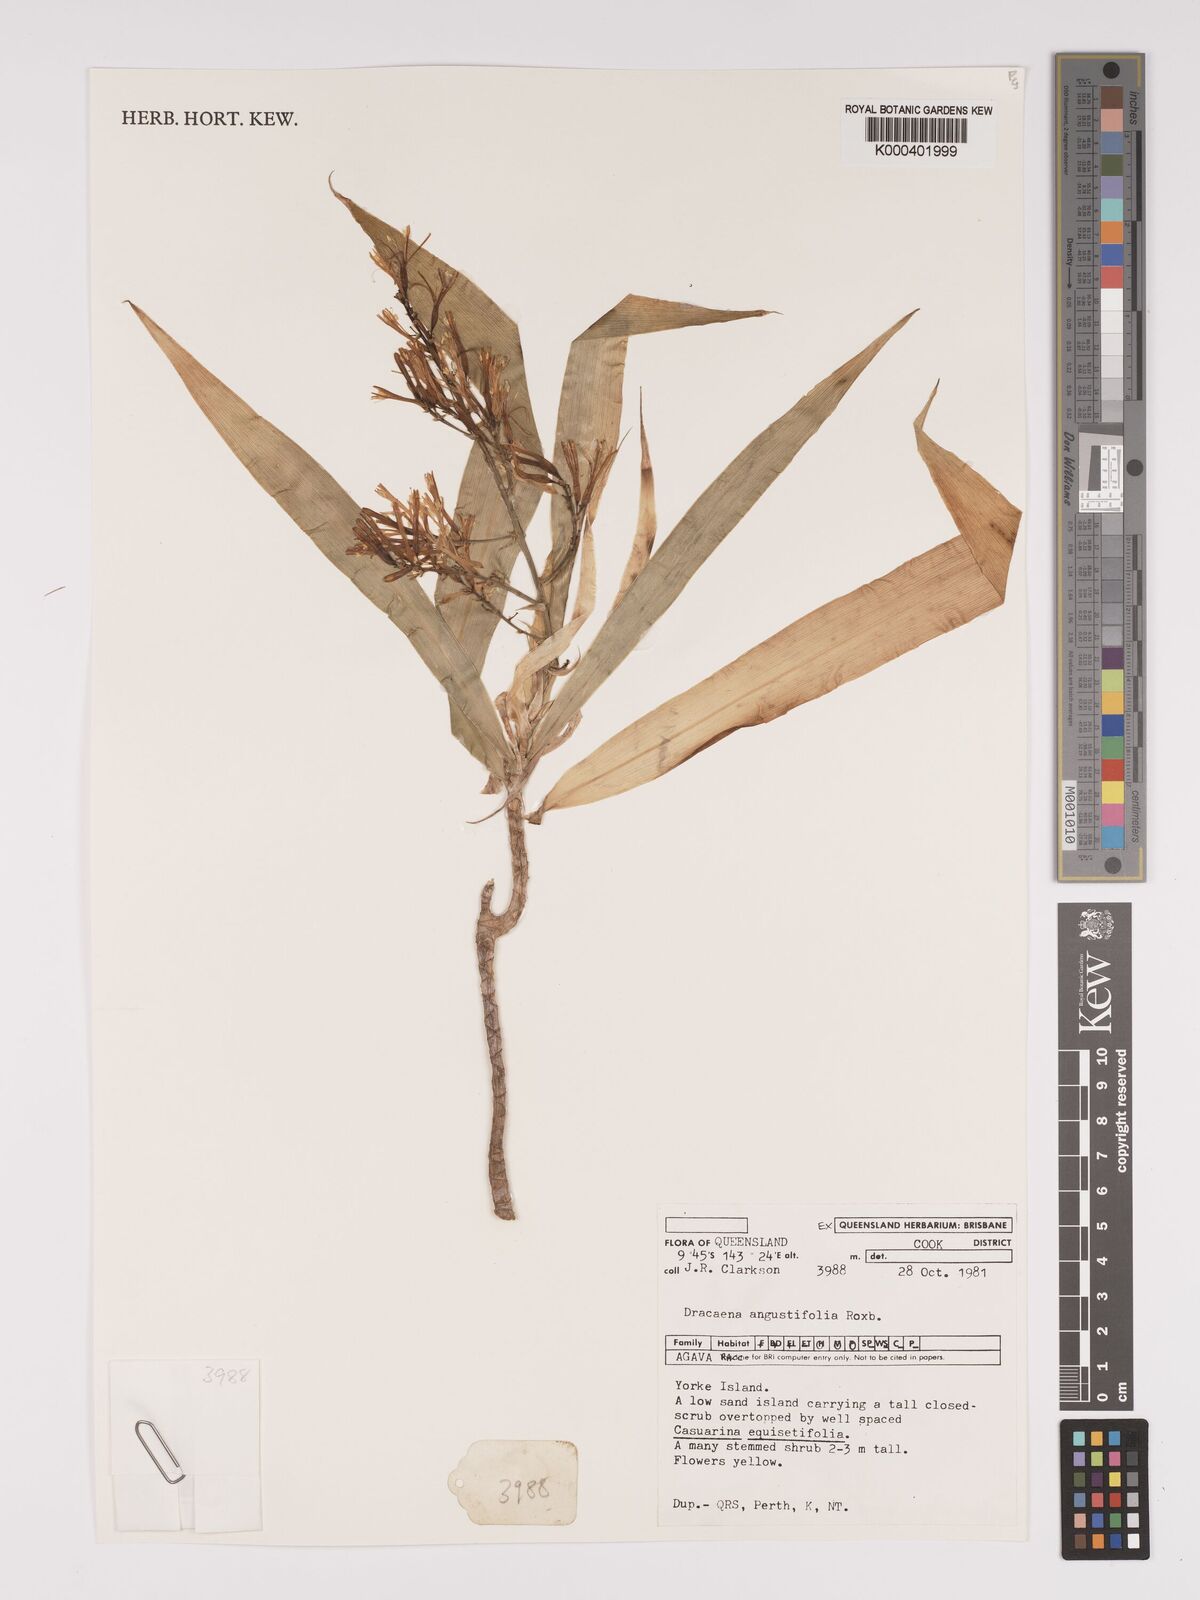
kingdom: Plantae
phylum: Tracheophyta
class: Liliopsida
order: Asparagales
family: Asparagaceae
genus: Dracaena
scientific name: Dracaena angustifolia
